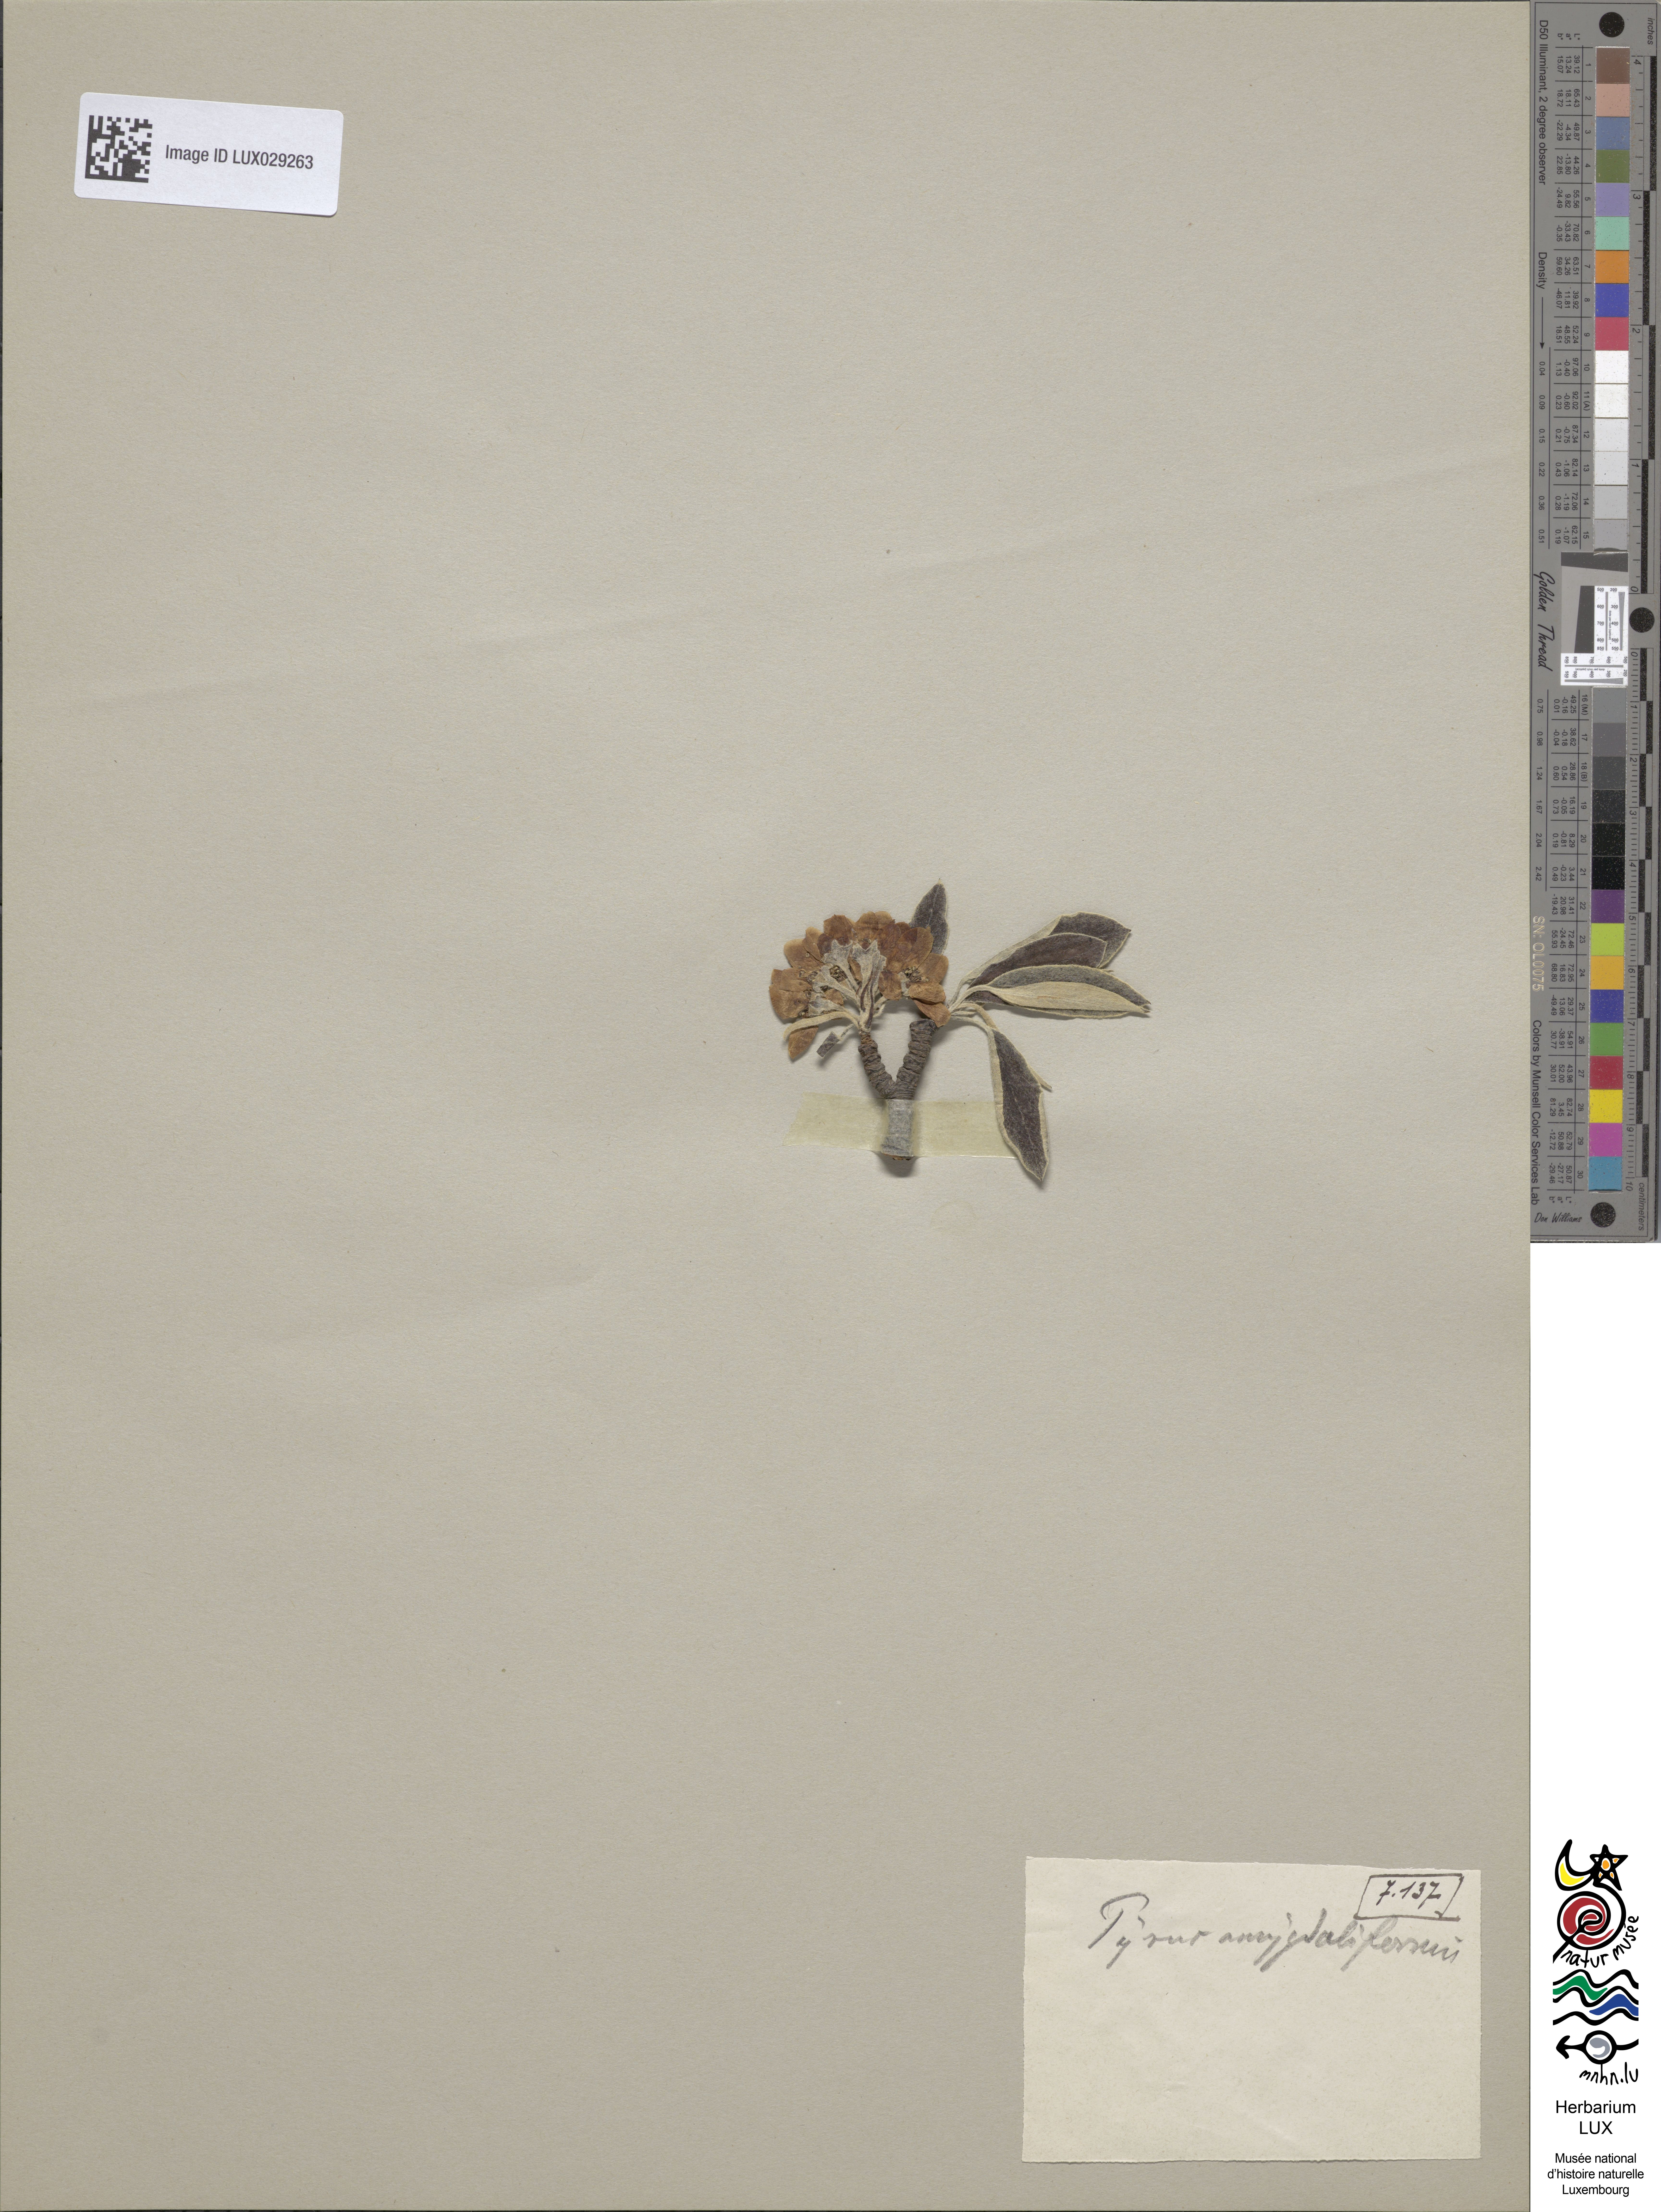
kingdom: Plantae
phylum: Tracheophyta
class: Magnoliopsida
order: Rosales
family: Rosaceae
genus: Pyrus
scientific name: Pyrus spinosa
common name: Almond-leaf pear
